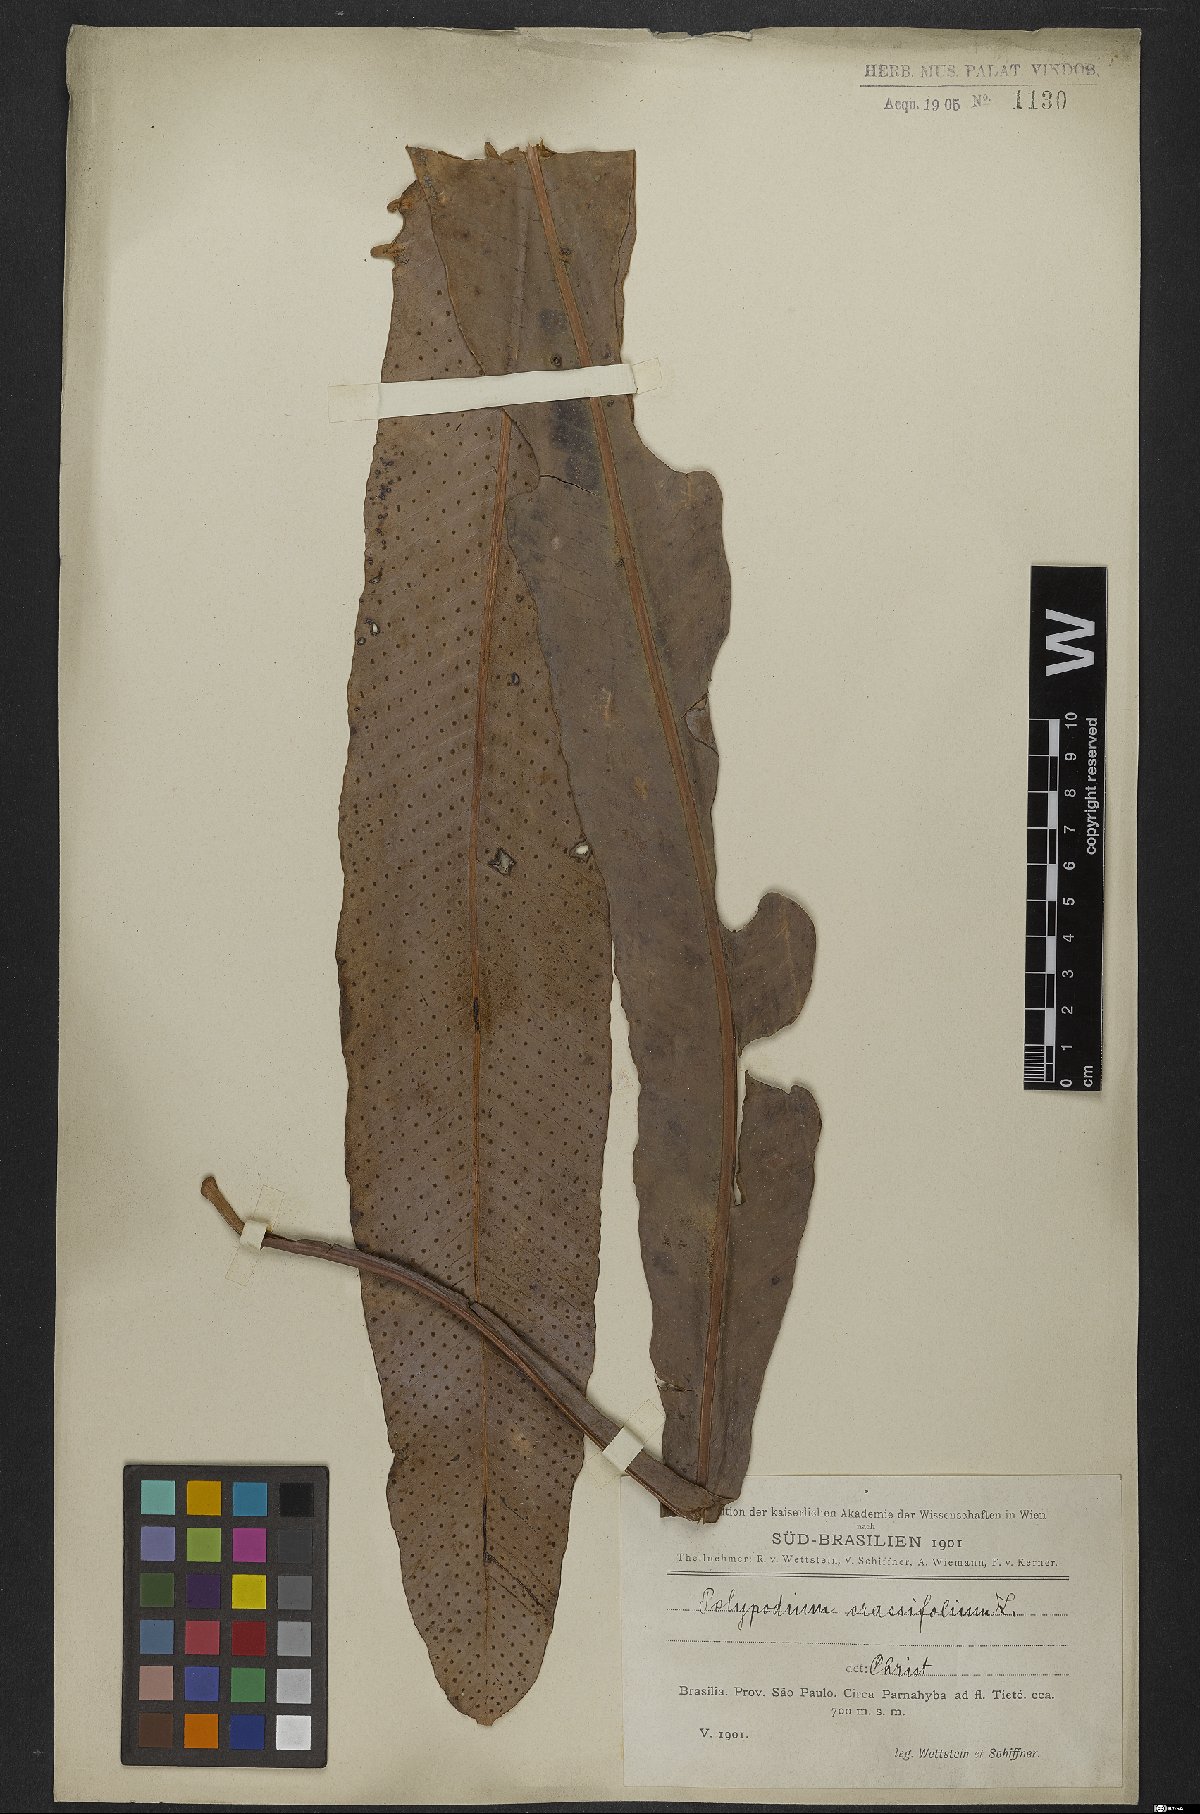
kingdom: Plantae
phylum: Tracheophyta
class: Polypodiopsida
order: Polypodiales
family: Polypodiaceae
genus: Niphidium
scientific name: Niphidium crassifolium
